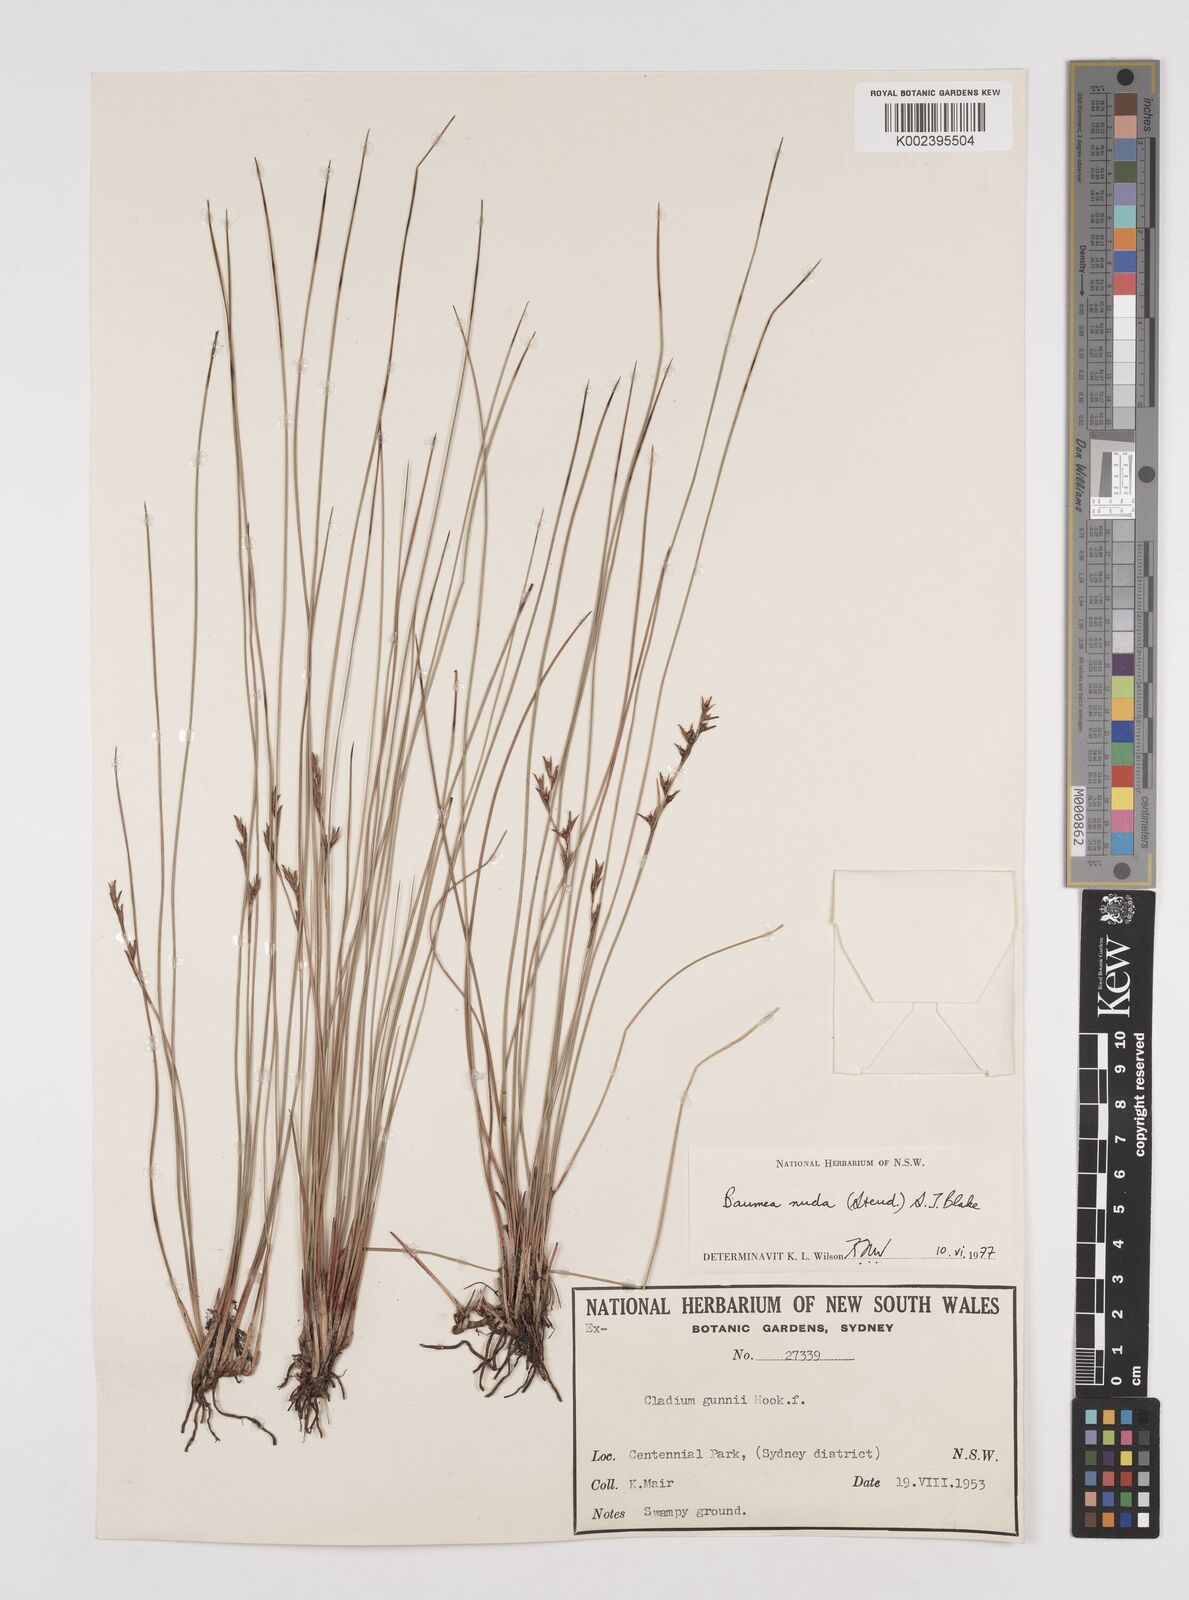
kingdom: Plantae
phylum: Tracheophyta
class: Liliopsida
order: Poales
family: Cyperaceae
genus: Machaerina
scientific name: Machaerina nuda
